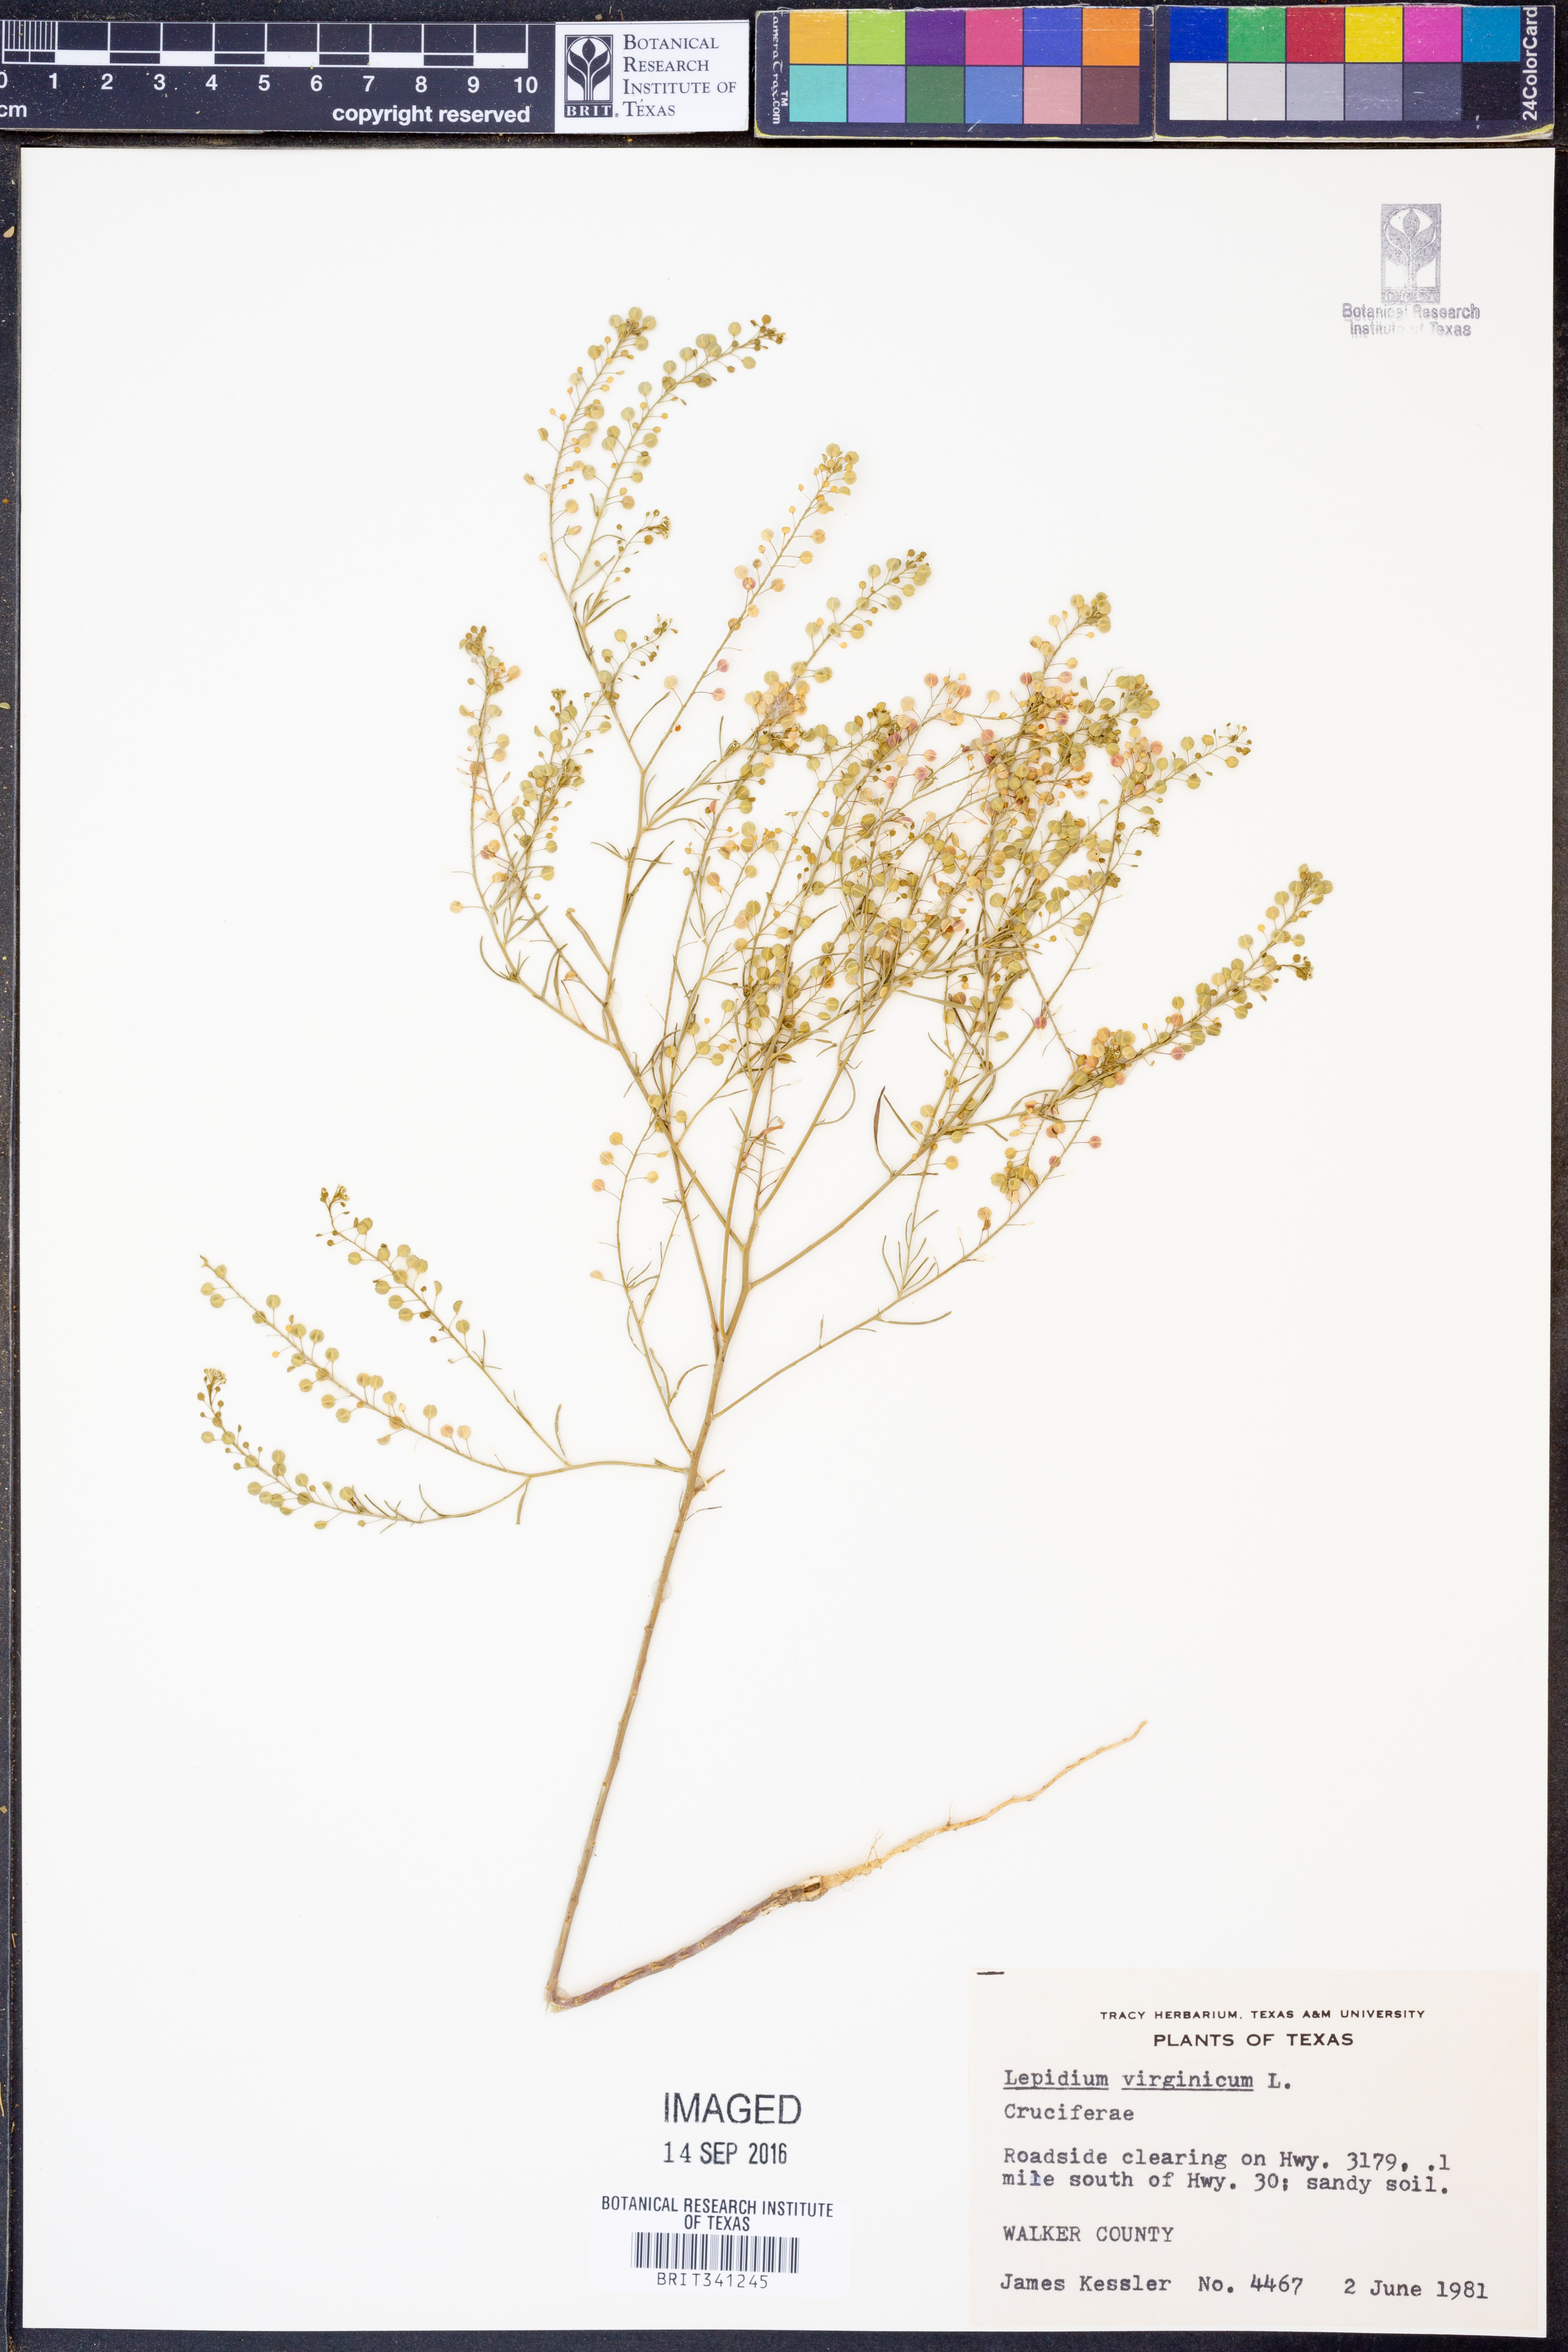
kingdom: Plantae
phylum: Tracheophyta
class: Magnoliopsida
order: Brassicales
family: Brassicaceae
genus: Lepidium
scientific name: Lepidium virginicum
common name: Least pepperwort
